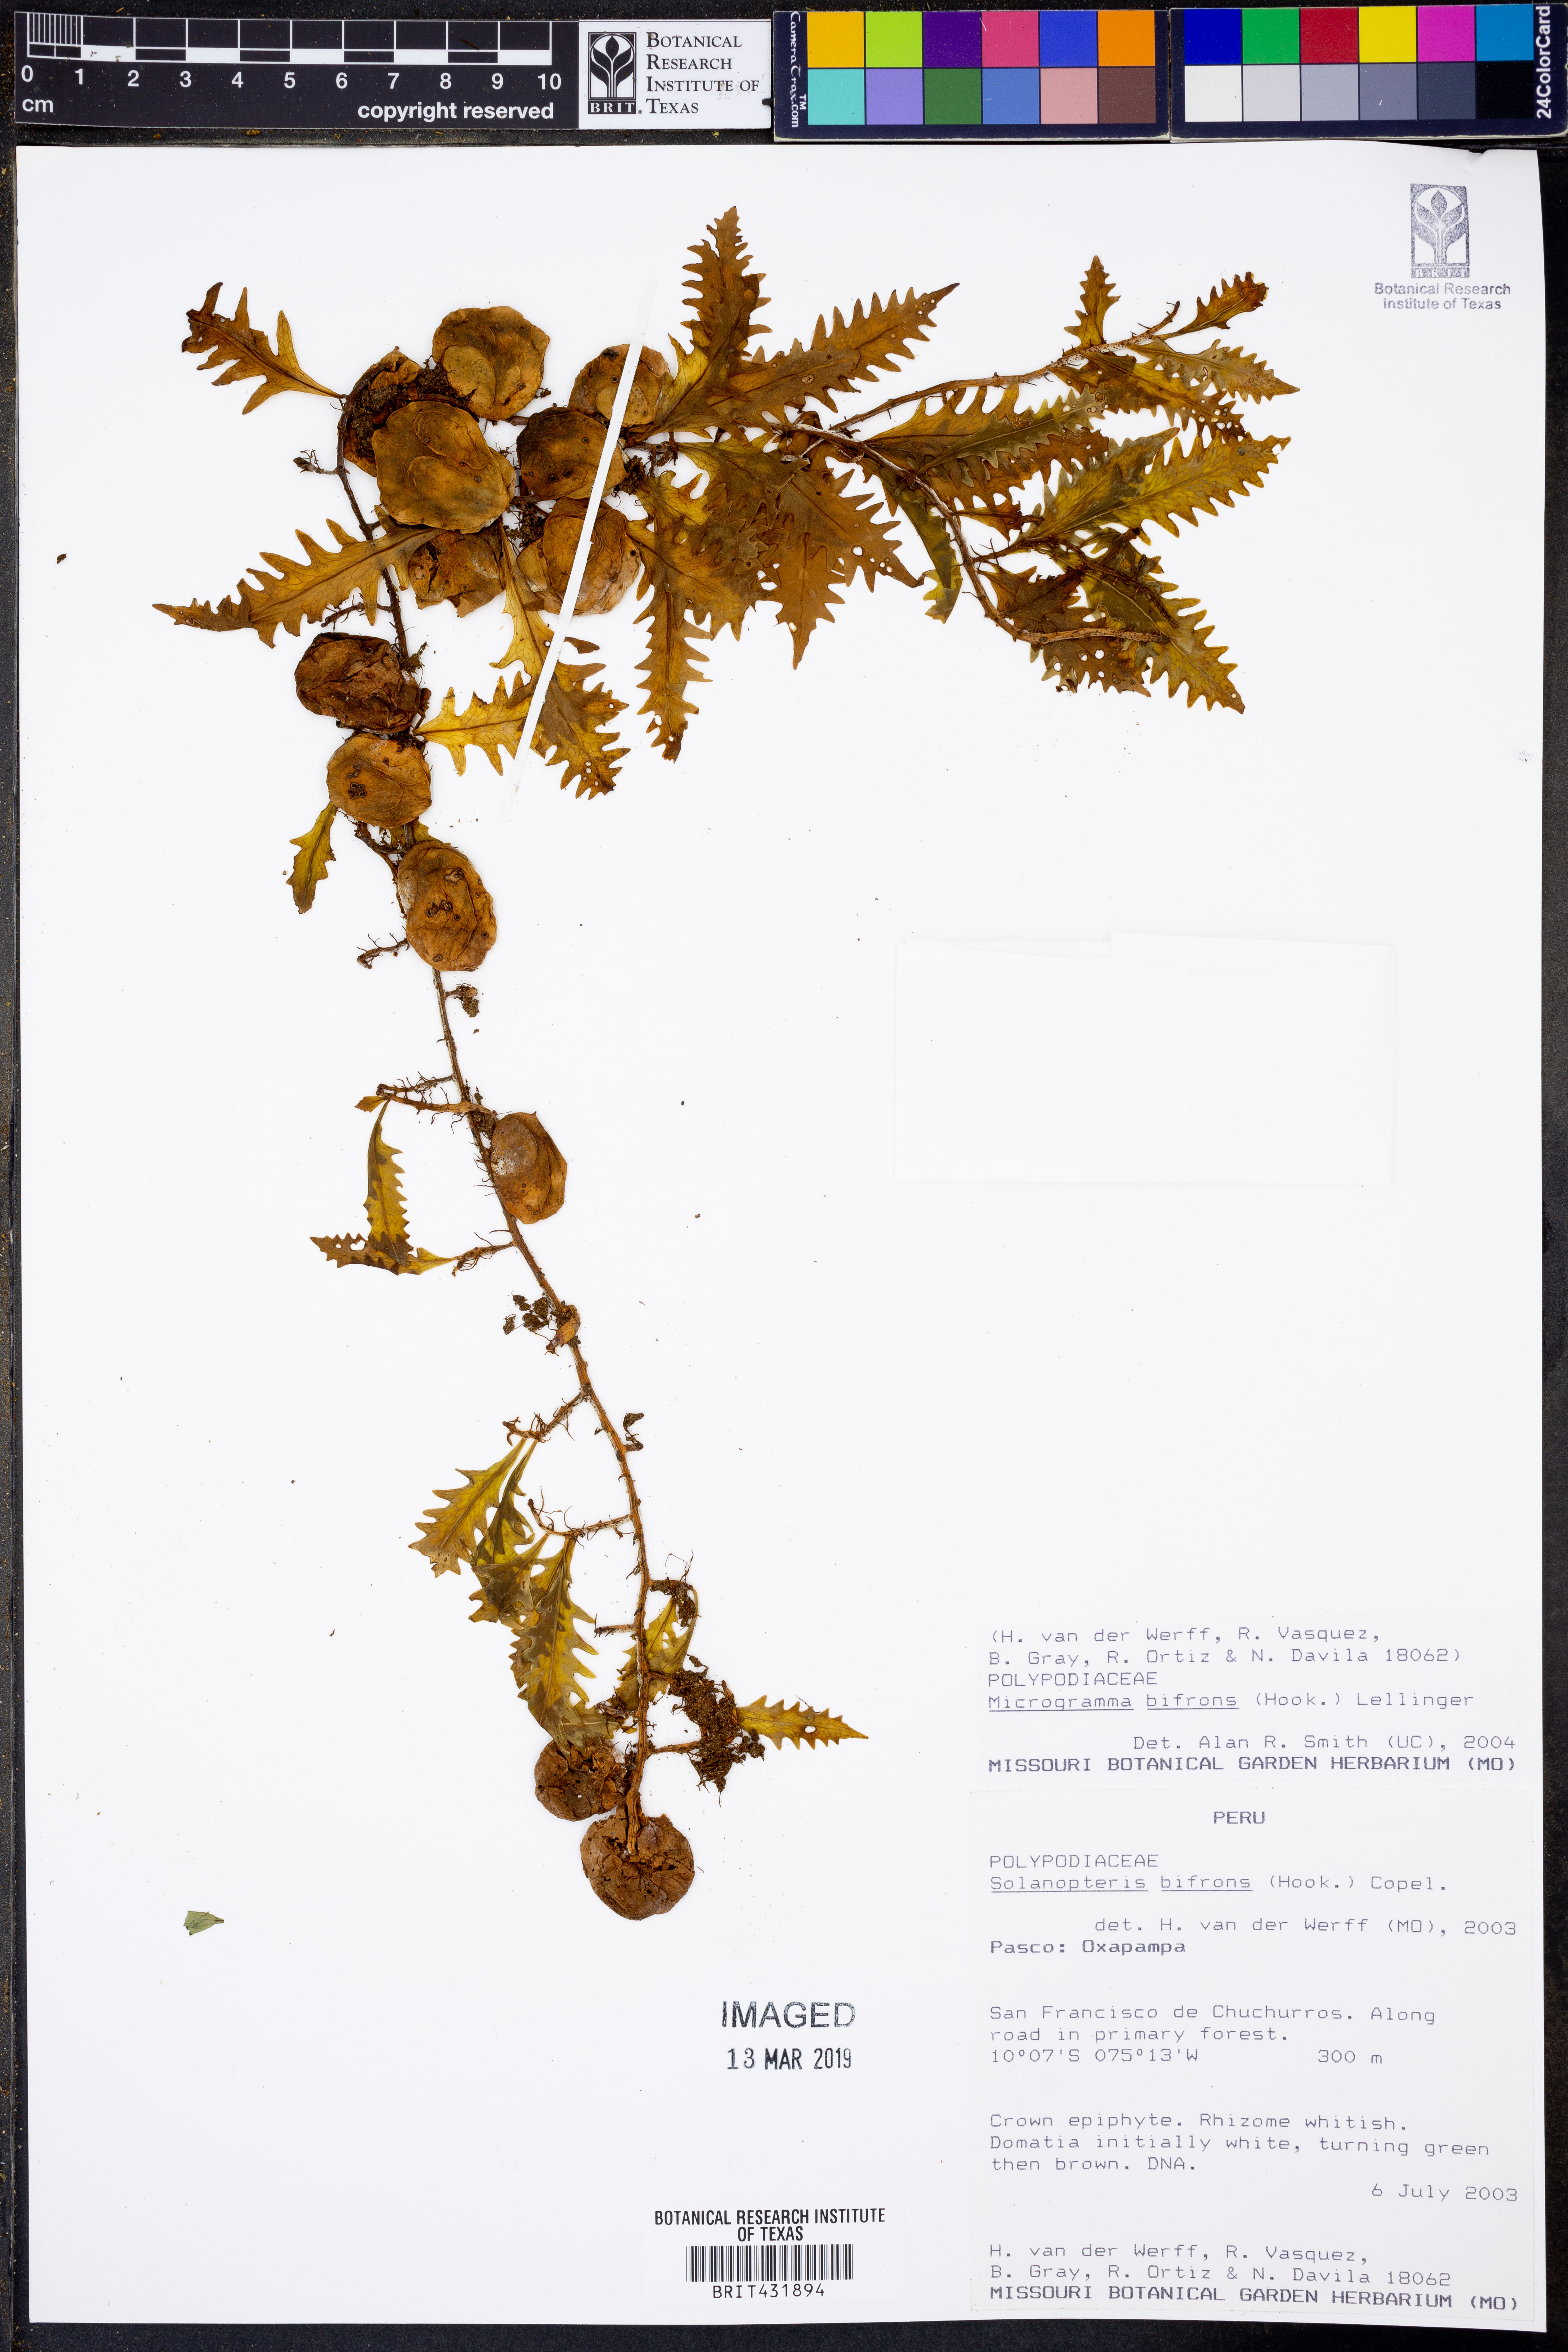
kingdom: Plantae
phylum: Tracheophyta
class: Polypodiopsida
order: Polypodiales
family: Polypodiaceae
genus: Microgramma
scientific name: Microgramma bifrons
